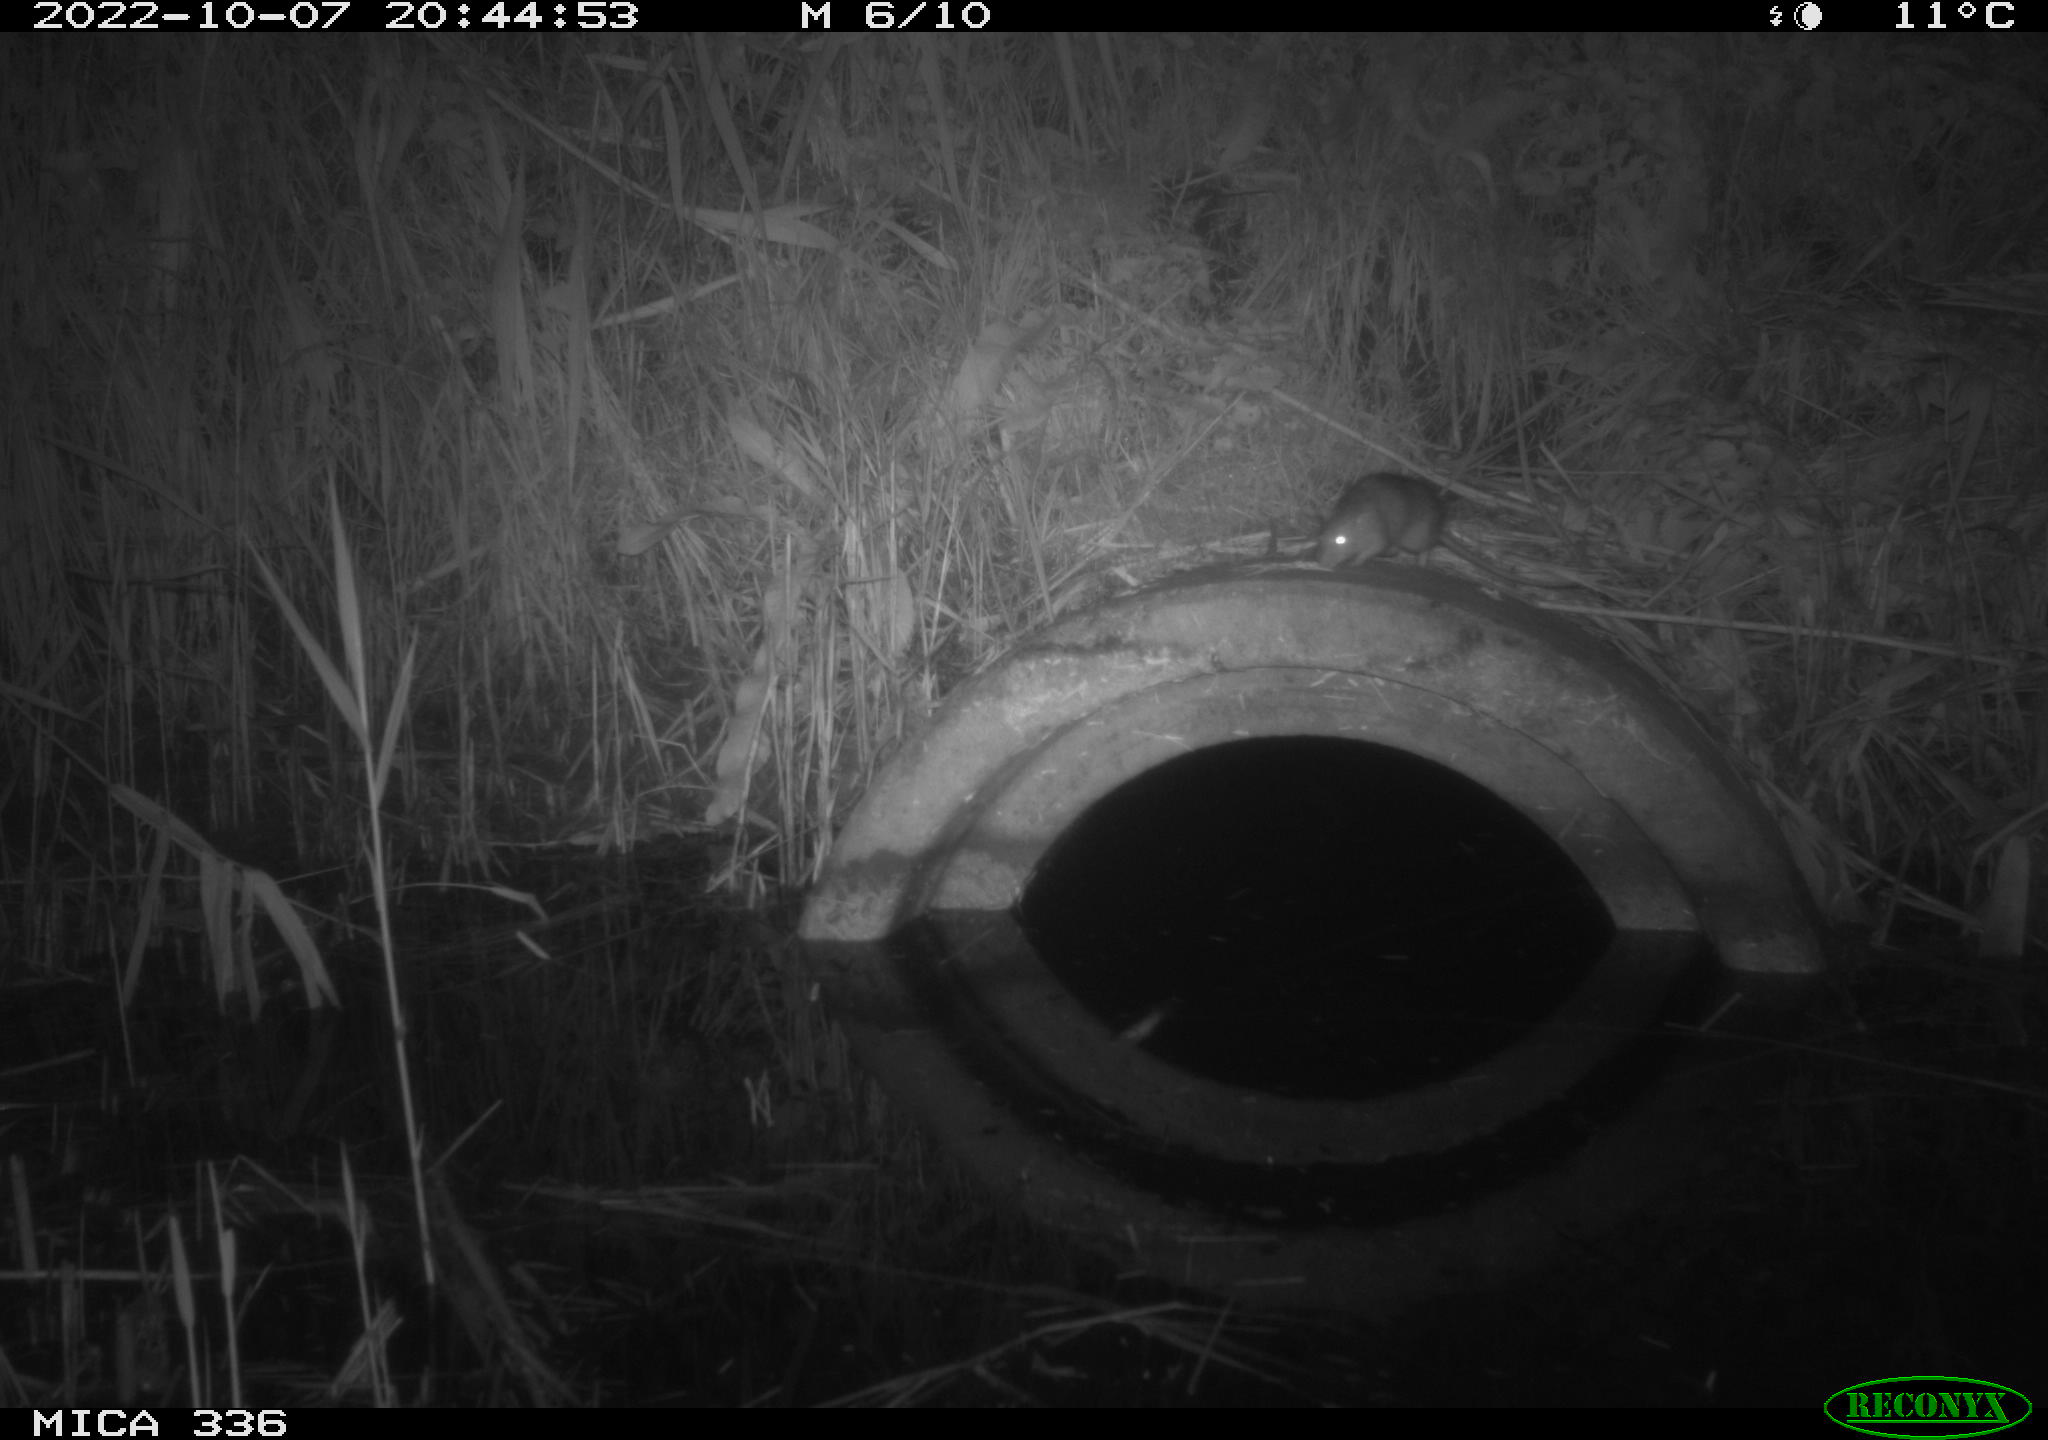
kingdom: Animalia
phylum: Chordata
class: Mammalia
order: Rodentia
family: Muridae
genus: Rattus
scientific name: Rattus norvegicus
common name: Brown rat
